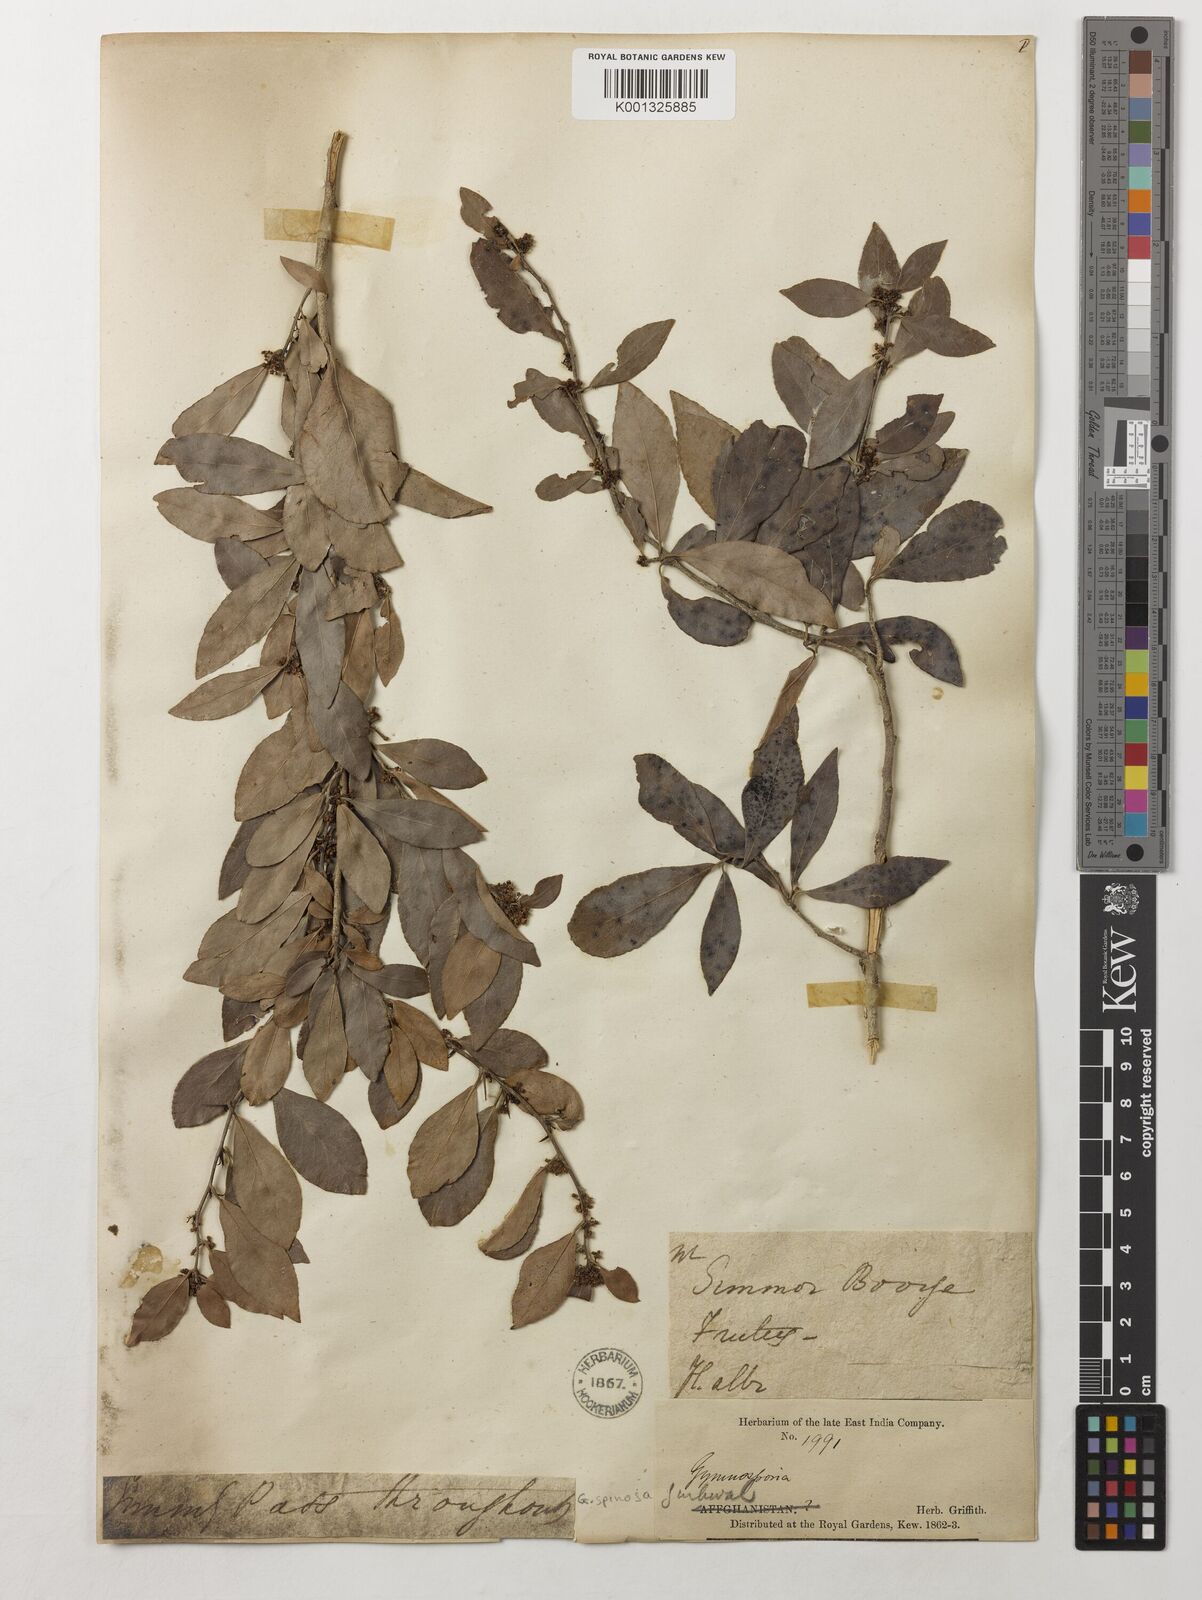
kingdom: Plantae
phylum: Tracheophyta
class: Magnoliopsida
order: Celastrales
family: Celastraceae
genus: Gymnosporia
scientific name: Gymnosporia emarginata
